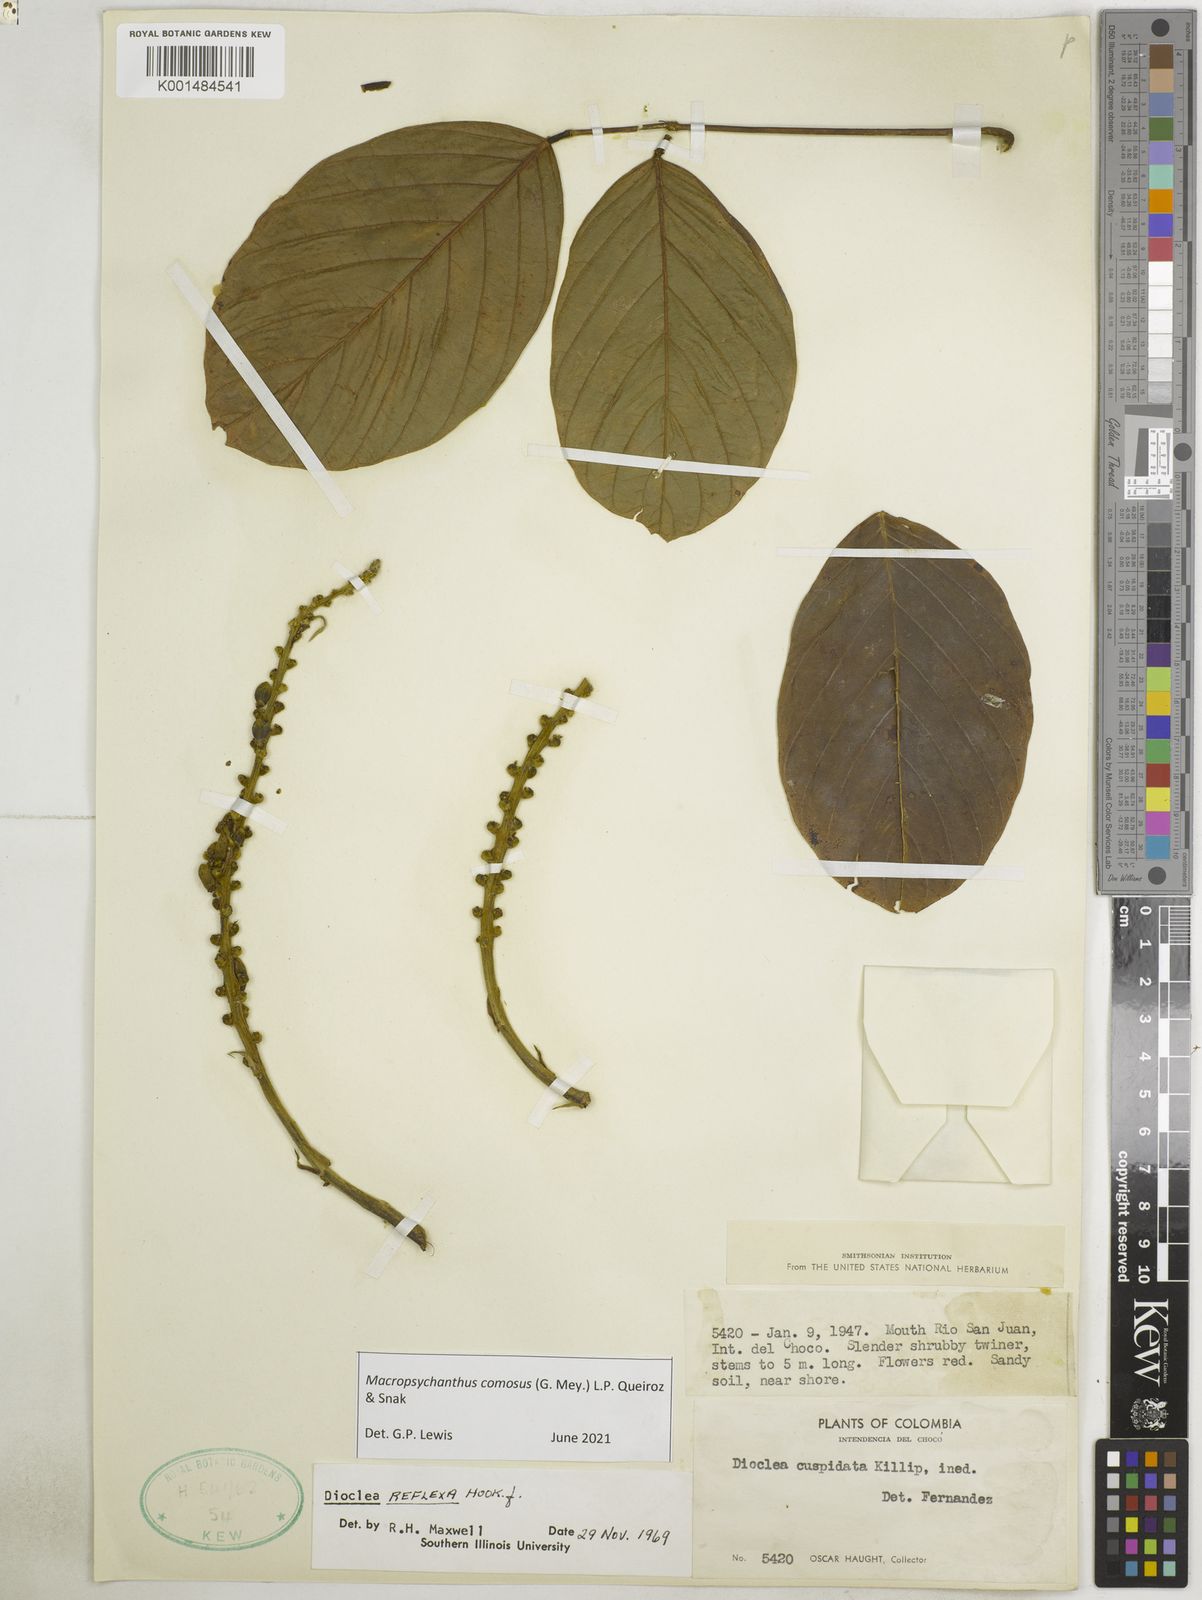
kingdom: Plantae
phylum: Tracheophyta
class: Magnoliopsida
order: Fabales
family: Fabaceae
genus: Macropsychanthus
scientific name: Macropsychanthus
